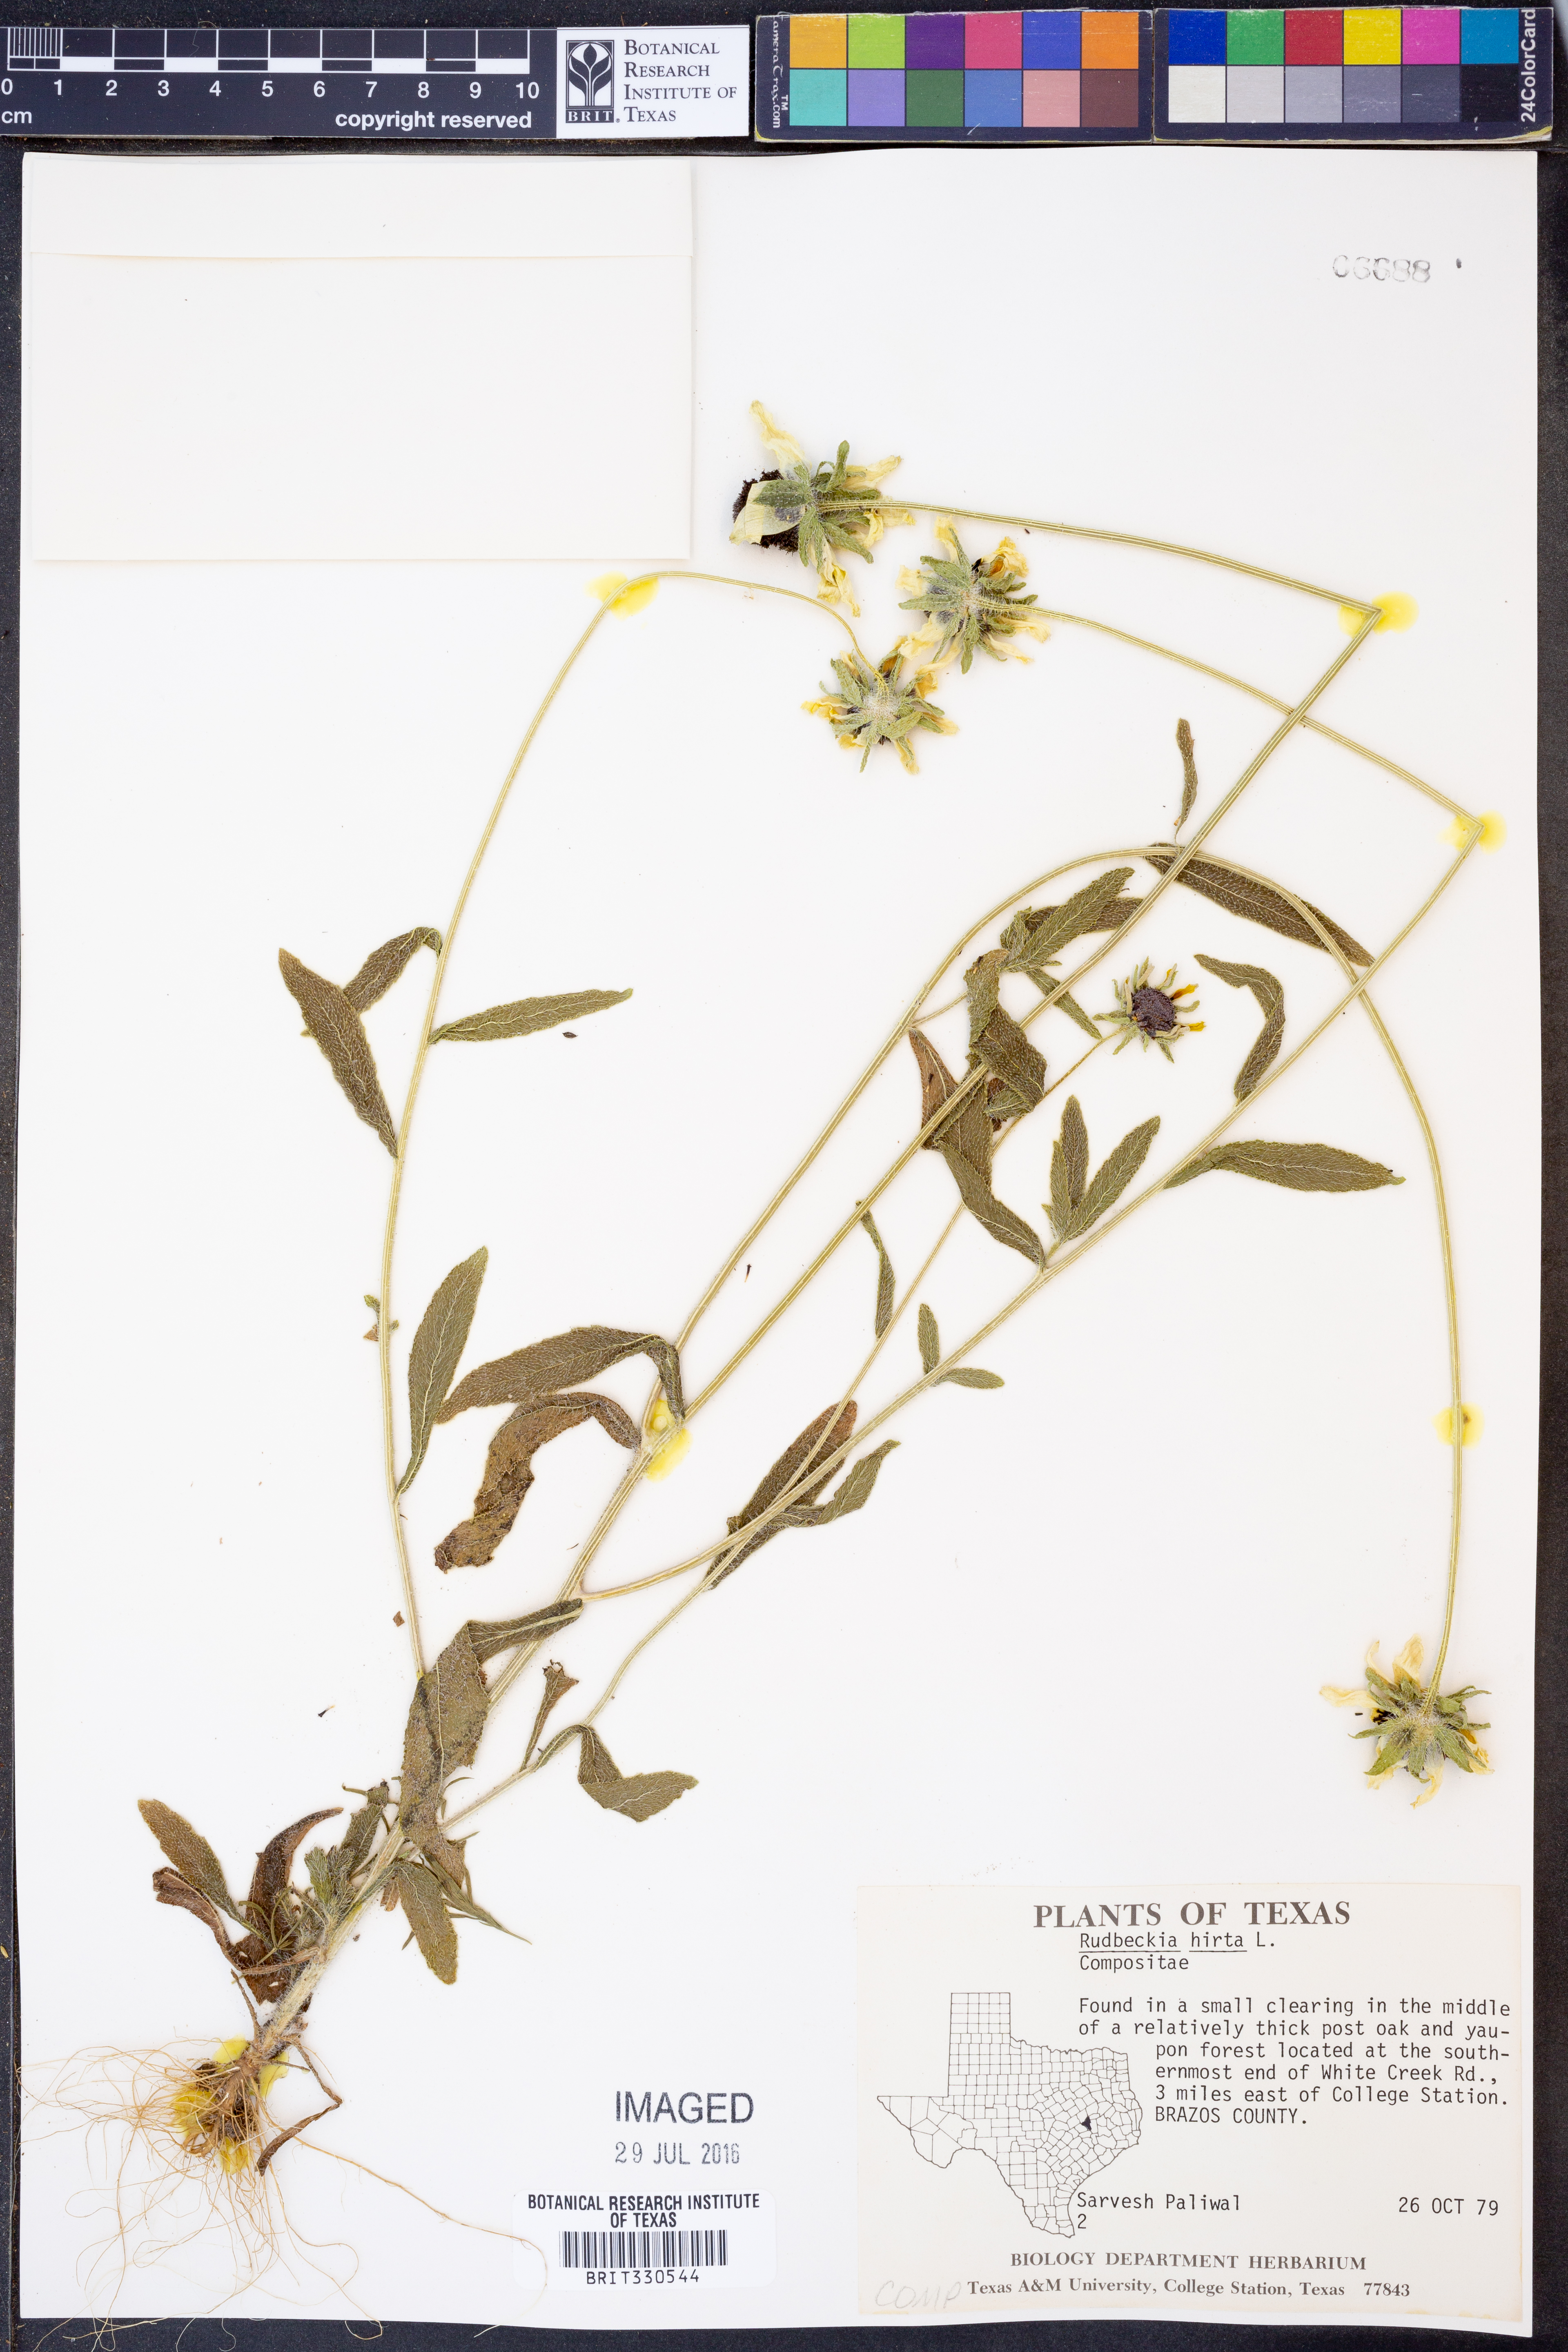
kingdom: Plantae
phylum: Tracheophyta
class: Magnoliopsida
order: Asterales
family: Asteraceae
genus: Rudbeckia
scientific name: Rudbeckia hirta
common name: Black-eyed-susan
